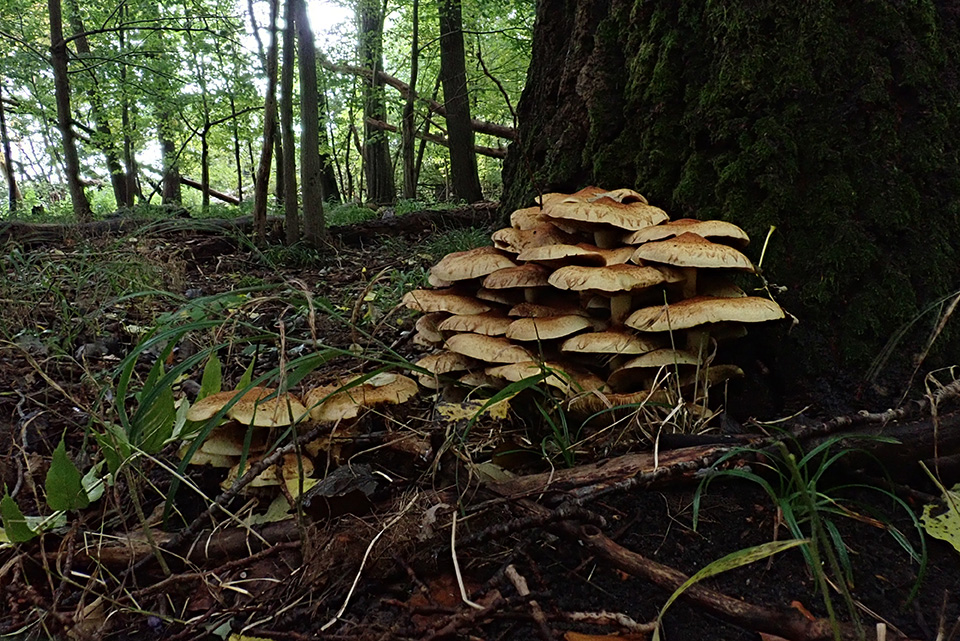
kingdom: Fungi
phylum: Basidiomycota
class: Agaricomycetes
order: Agaricales
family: Strophariaceae
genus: Pholiota
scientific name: Pholiota squarrosa
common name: krumskællet skælhat
